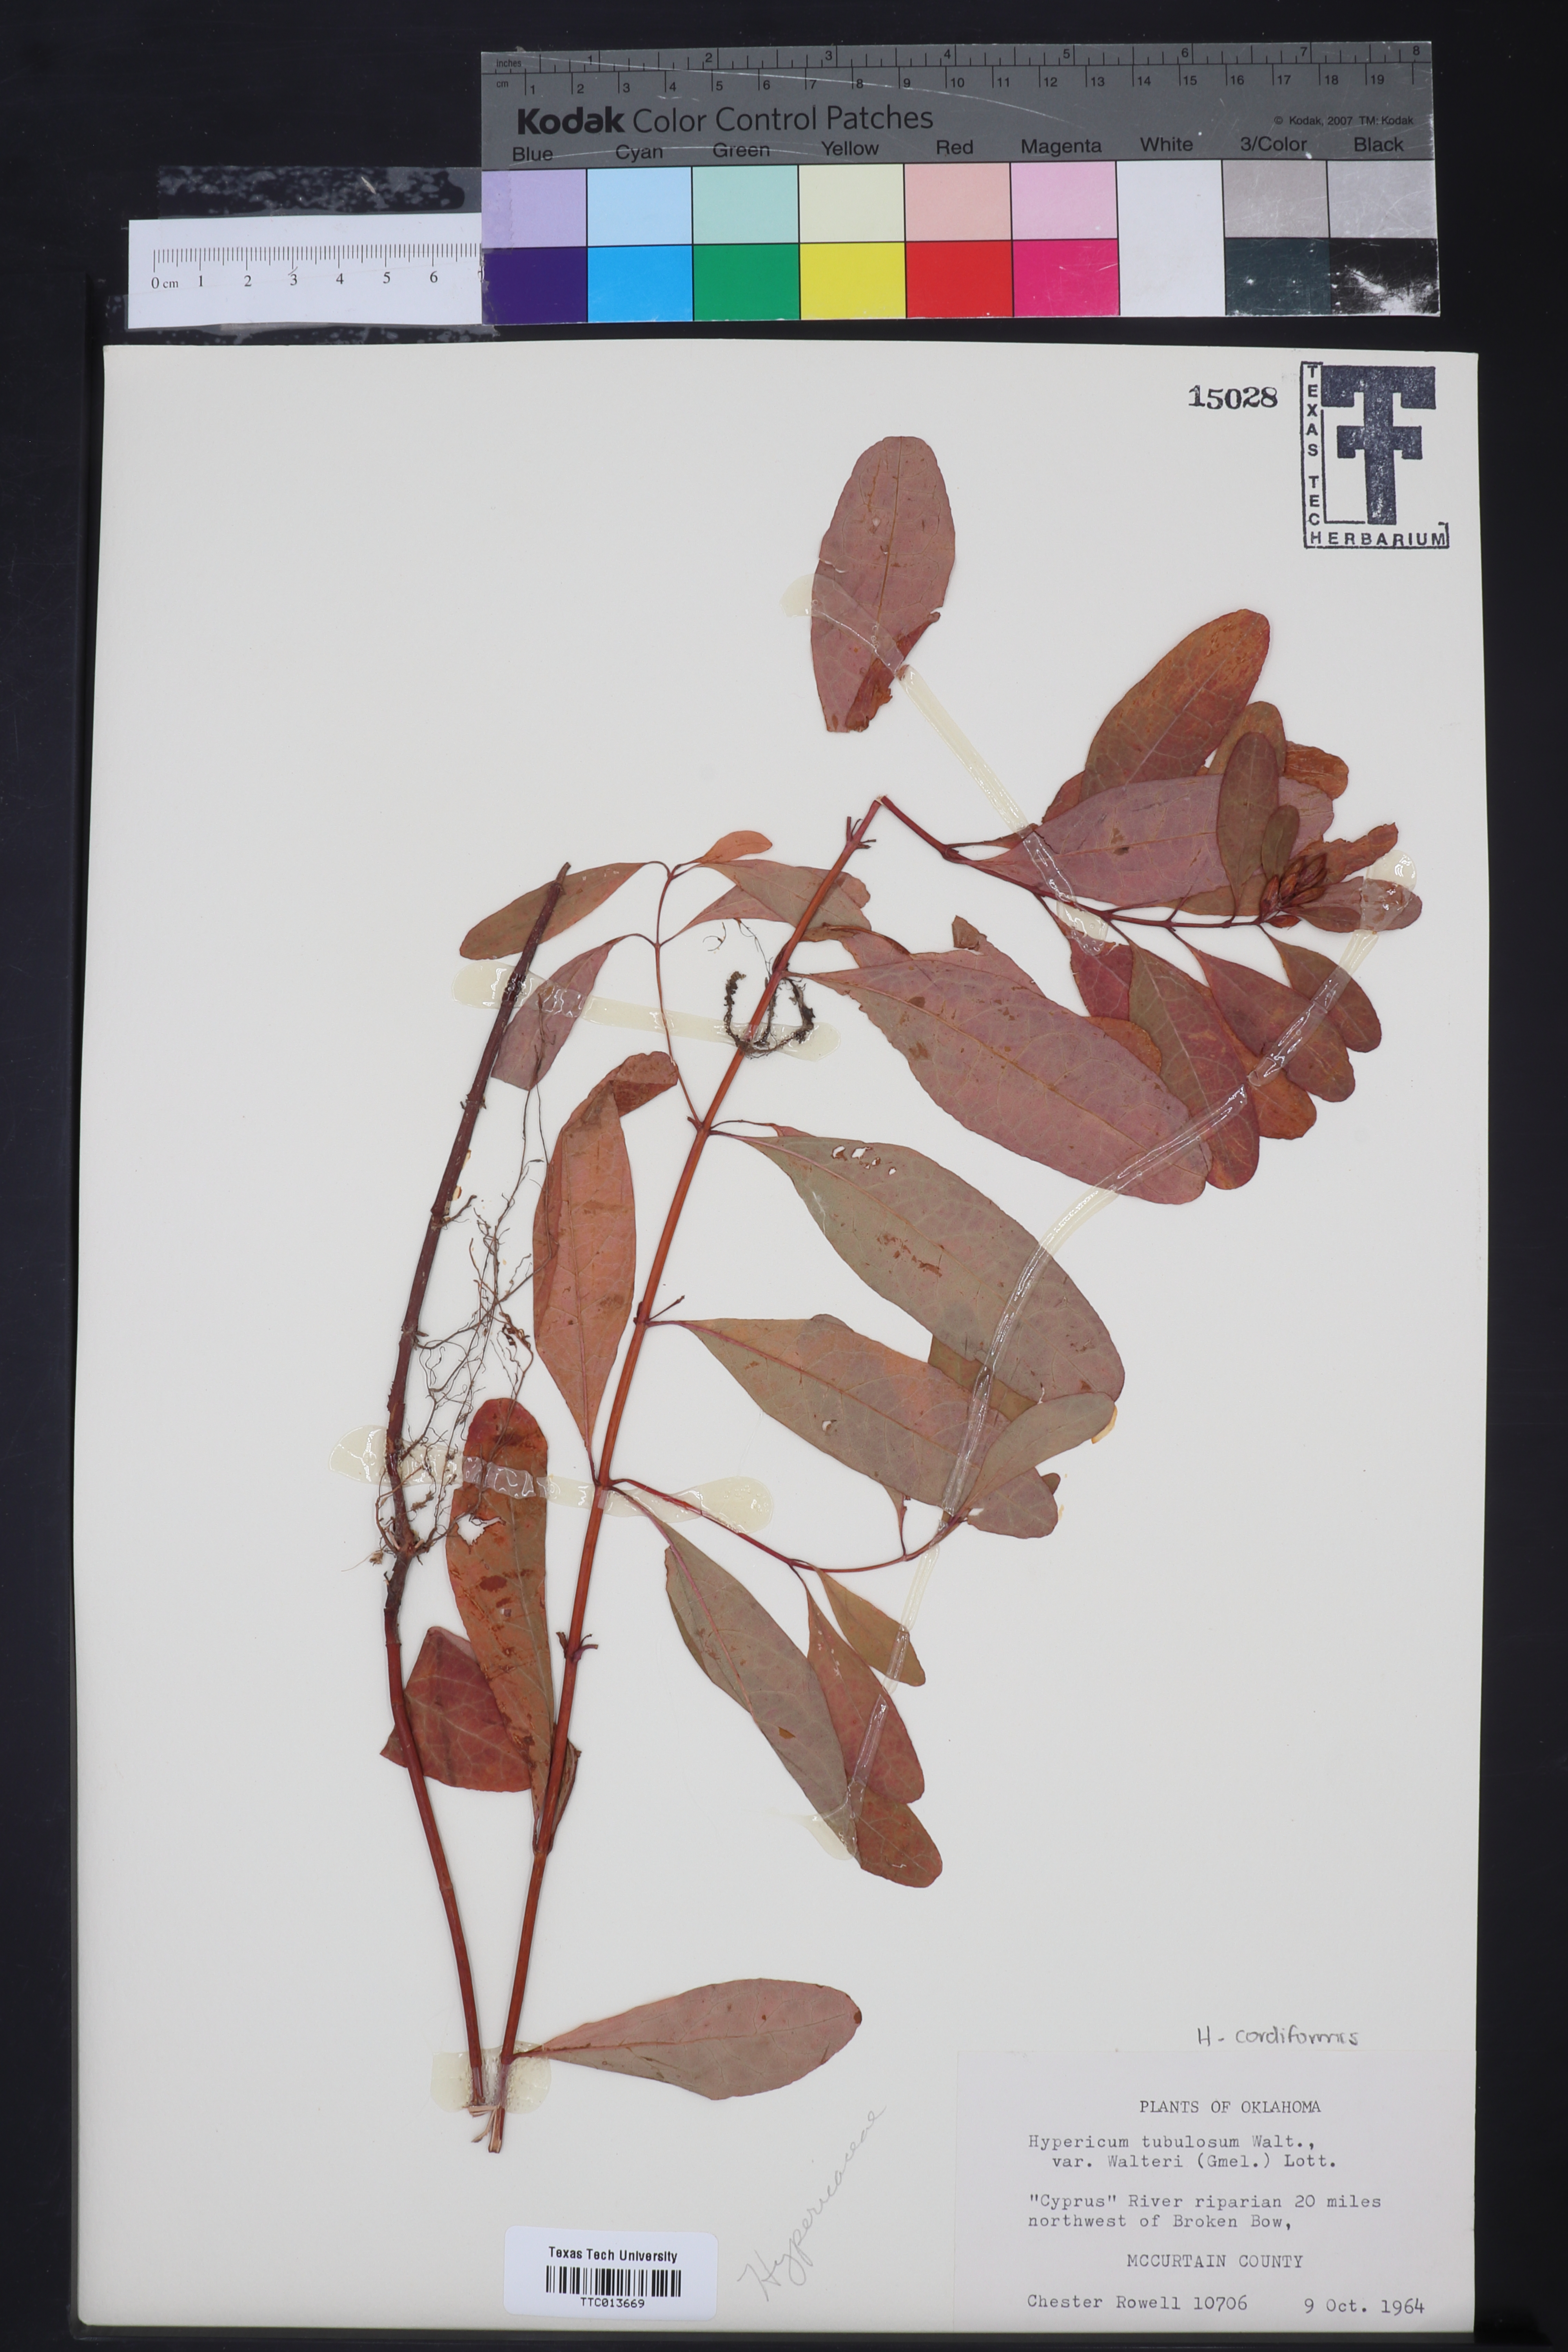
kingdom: Plantae
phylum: Tracheophyta
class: Magnoliopsida
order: Malpighiales
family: Hypericaceae
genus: Triadenum
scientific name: Triadenum walteri
